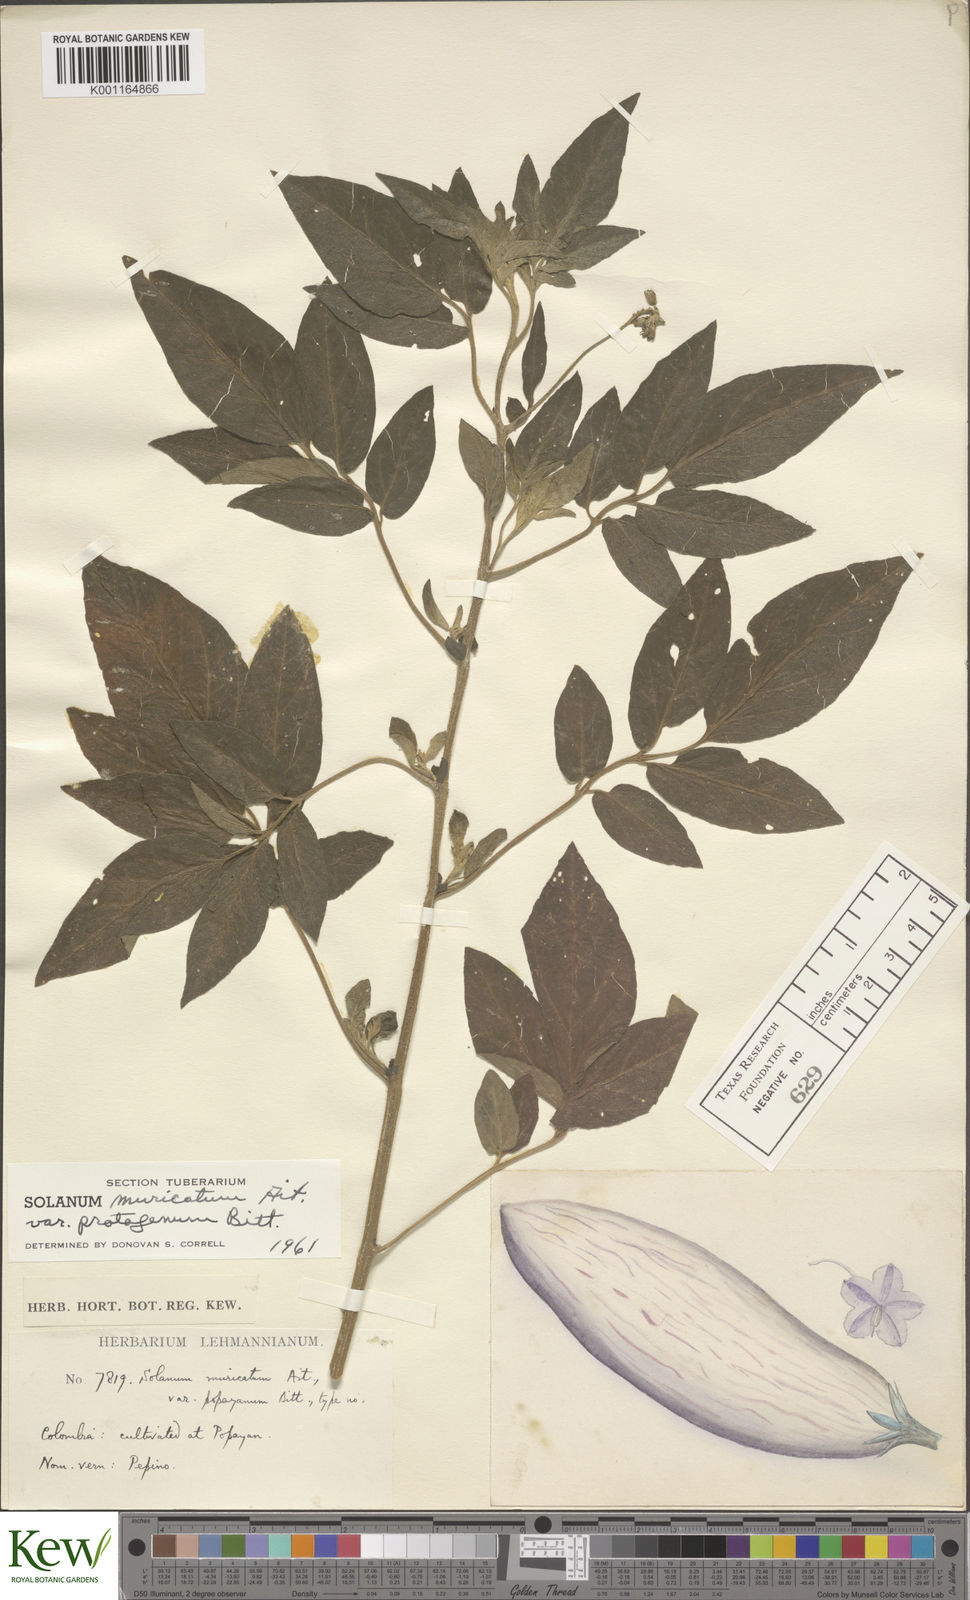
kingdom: Plantae
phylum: Tracheophyta
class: Magnoliopsida
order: Solanales
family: Solanaceae
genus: Solanum
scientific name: Solanum muricatum
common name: Peruvian pepino
